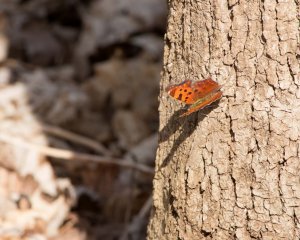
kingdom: Animalia
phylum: Arthropoda
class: Insecta
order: Lepidoptera
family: Nymphalidae
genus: Polygonia
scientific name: Polygonia comma
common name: Eastern Comma
